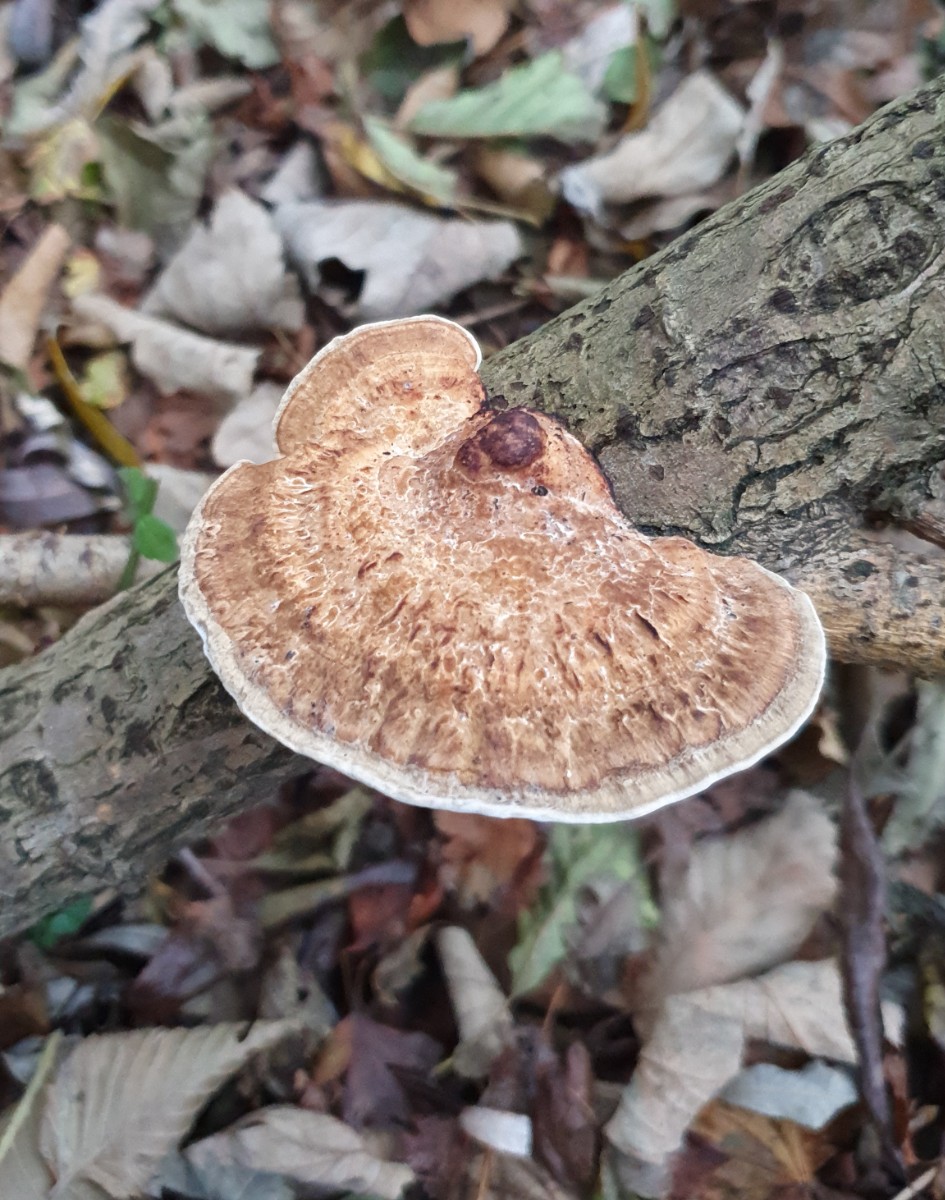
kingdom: Fungi
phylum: Basidiomycota
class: Agaricomycetes
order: Polyporales
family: Polyporaceae
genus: Daedaleopsis
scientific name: Daedaleopsis confragosa
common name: rødmende læderporesvamp
